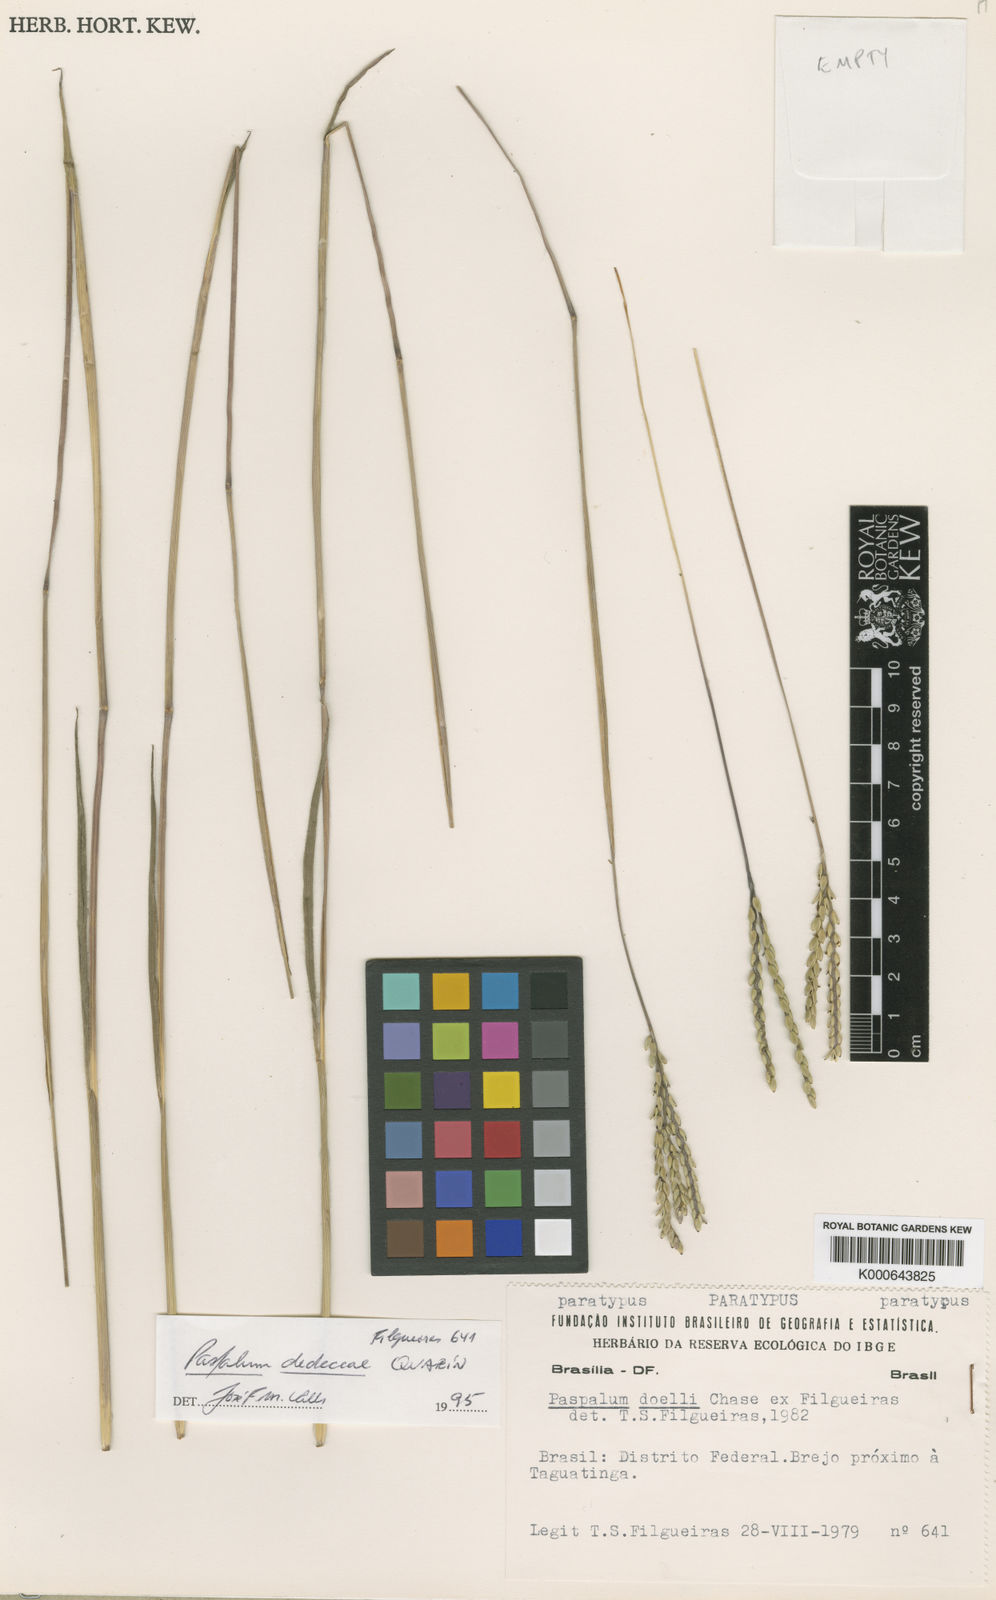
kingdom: Plantae
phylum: Tracheophyta
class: Liliopsida
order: Poales
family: Poaceae
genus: Paspalum
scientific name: Paspalum dedeccae
